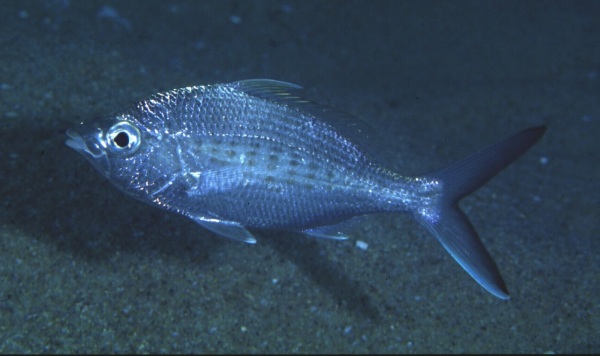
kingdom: Animalia
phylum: Chordata
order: Perciformes
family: Gerreidae
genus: Gerres
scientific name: Gerres oyena
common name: Common silver-biddy
